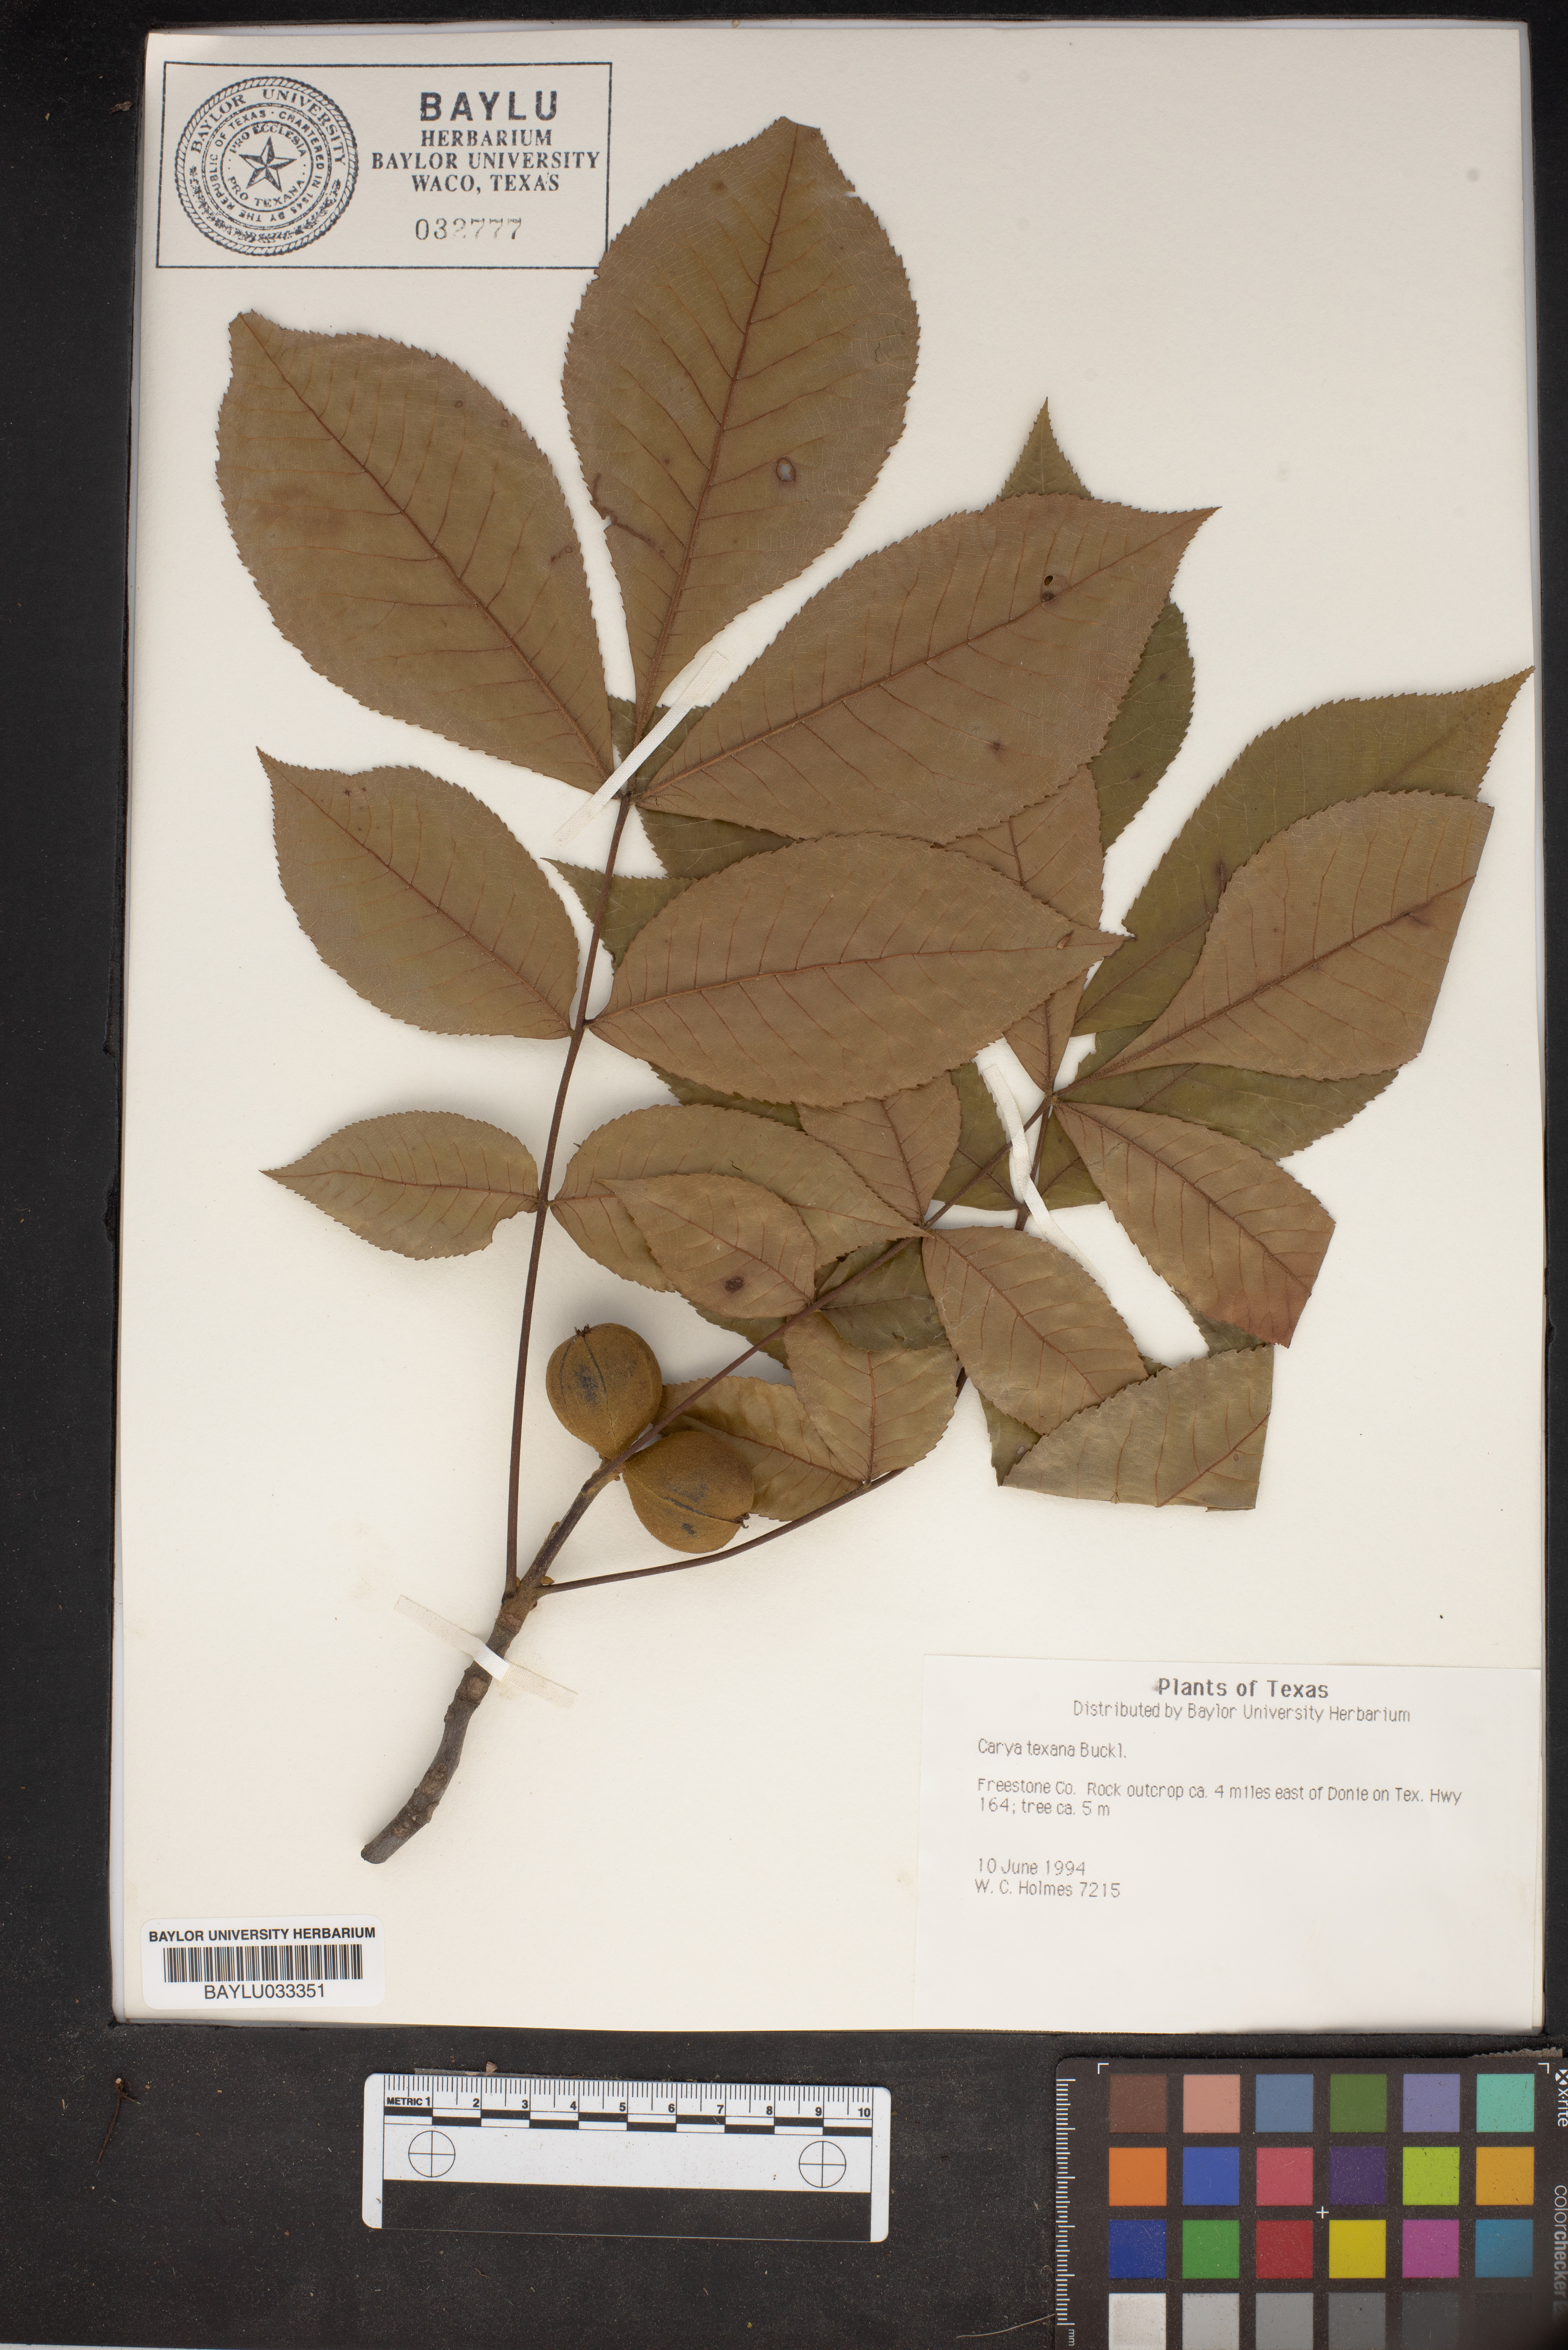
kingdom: Plantae
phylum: Tracheophyta
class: Magnoliopsida
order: Fagales
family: Juglandaceae
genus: Carya
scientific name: Carya texana
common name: Black hickory
